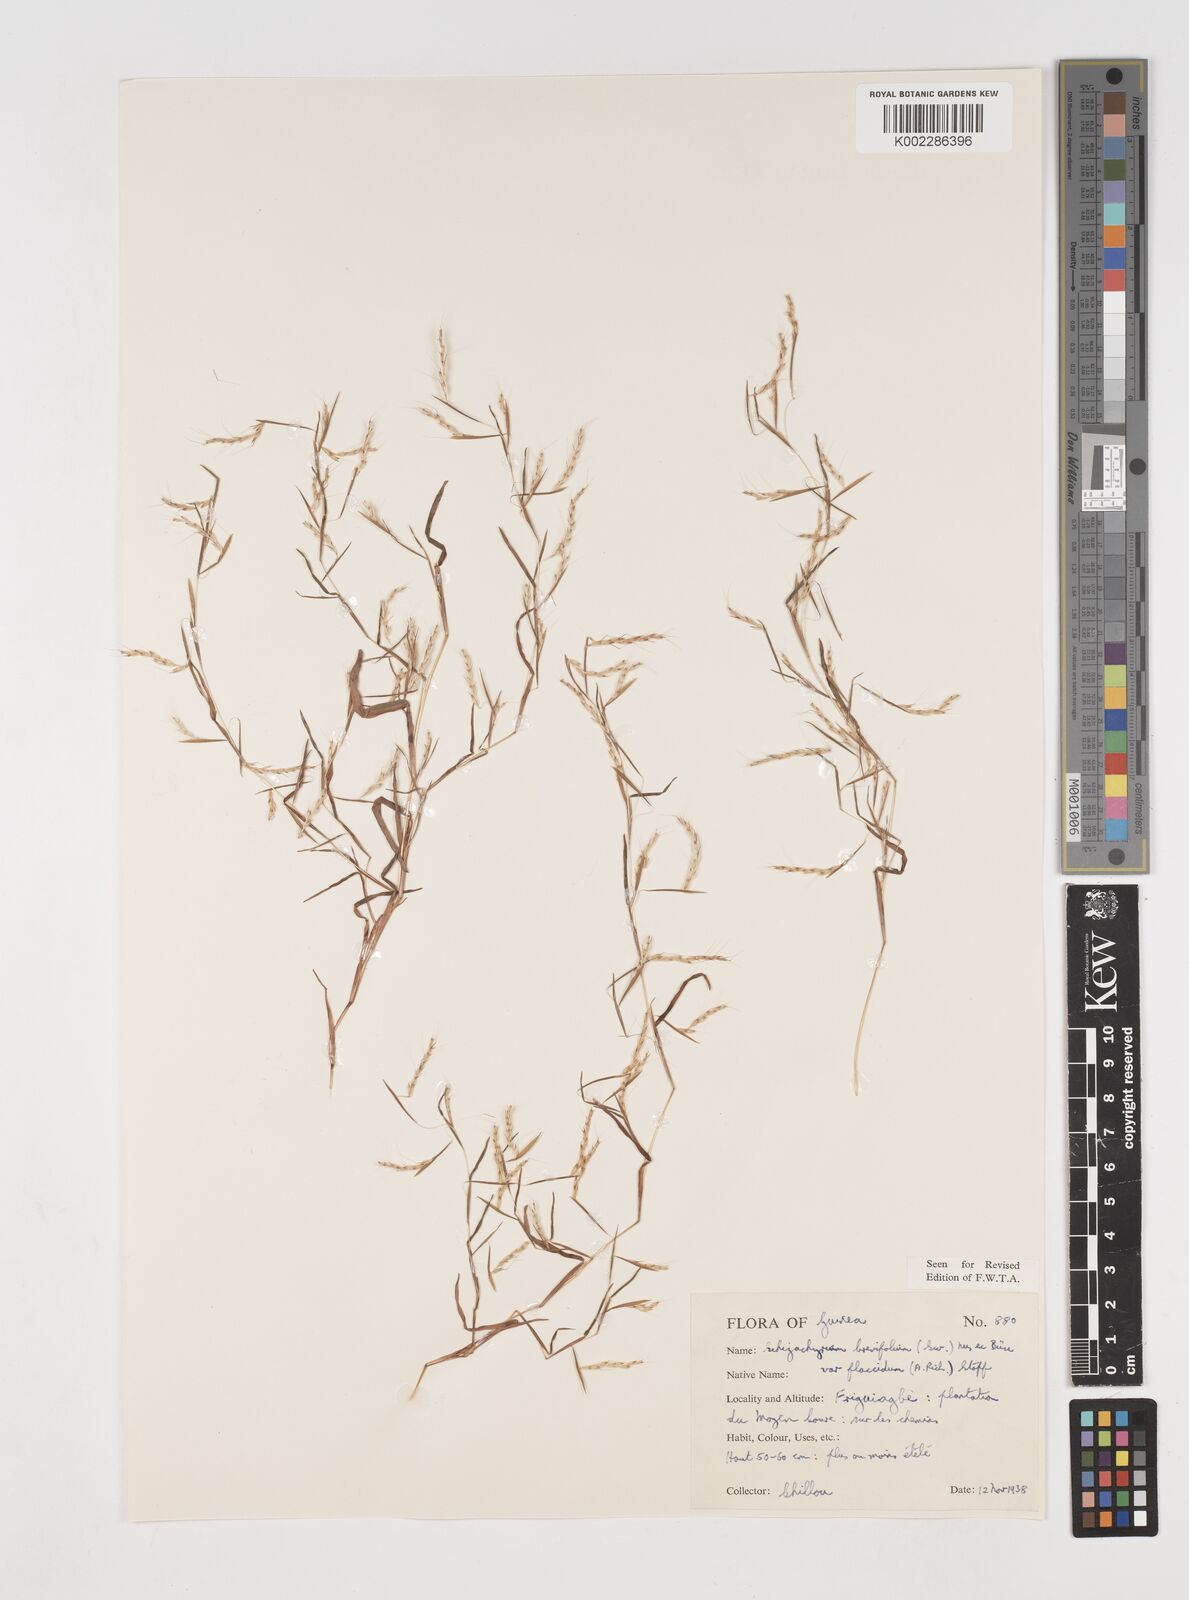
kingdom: Plantae
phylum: Tracheophyta
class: Liliopsida
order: Poales
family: Poaceae
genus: Schizachyrium
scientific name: Schizachyrium brevifolium
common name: Serillo dulce
